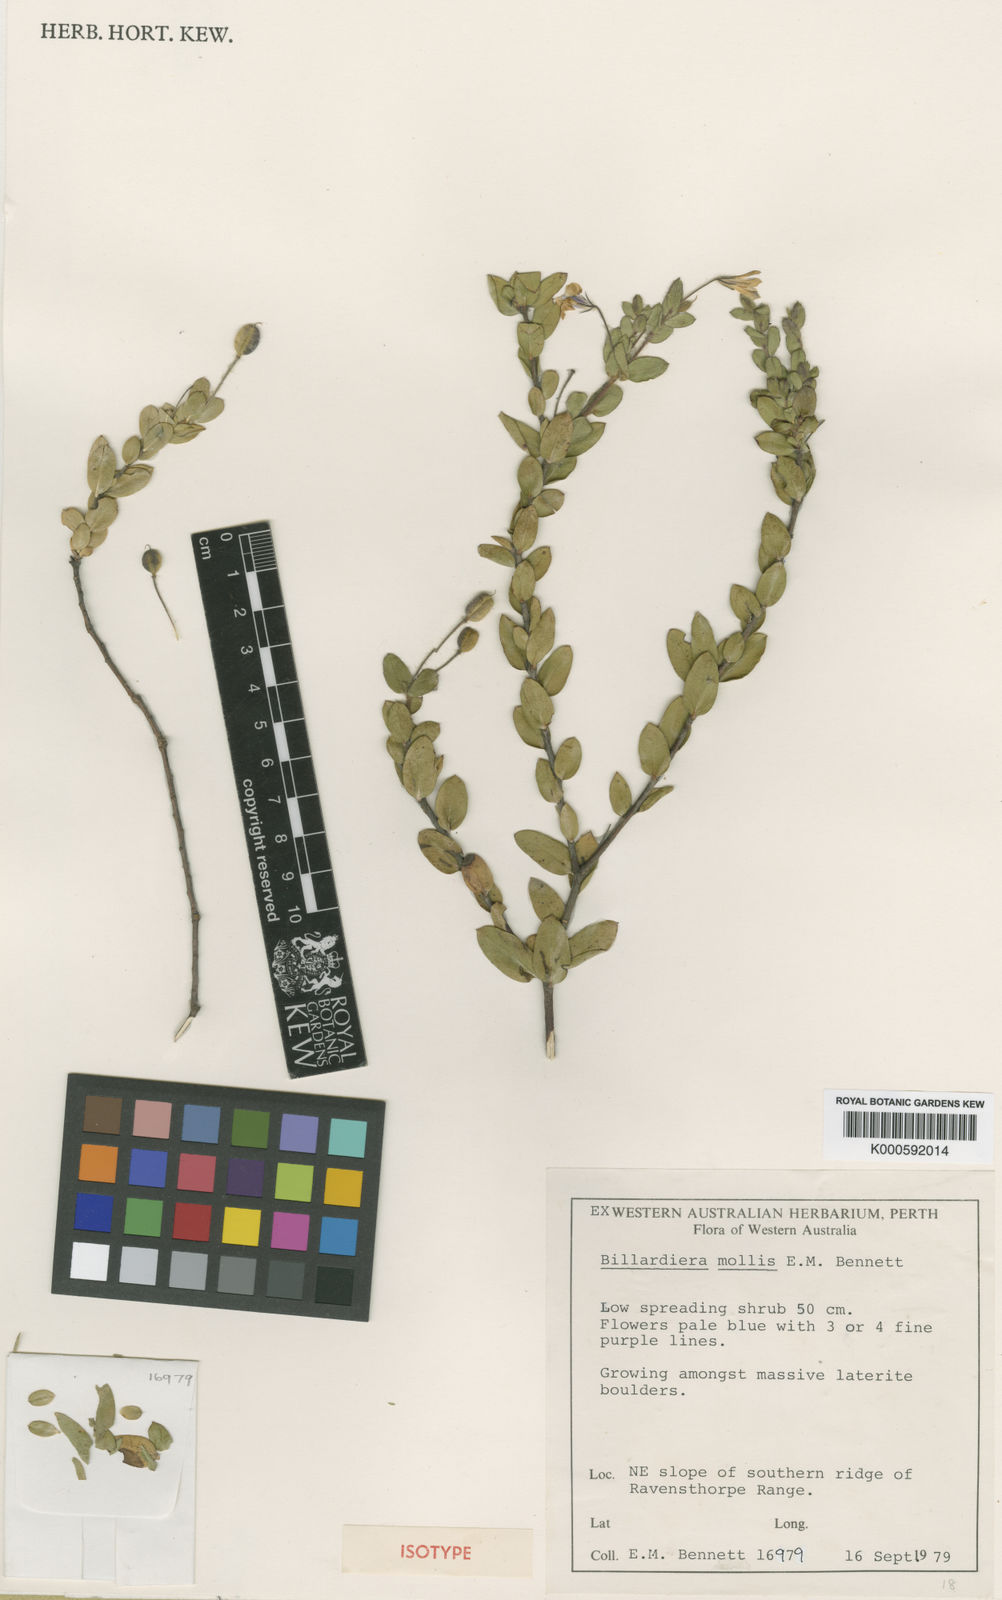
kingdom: Plantae
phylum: Tracheophyta
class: Magnoliopsida
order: Apiales
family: Pittosporaceae
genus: Marianthus
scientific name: Marianthus mollis
